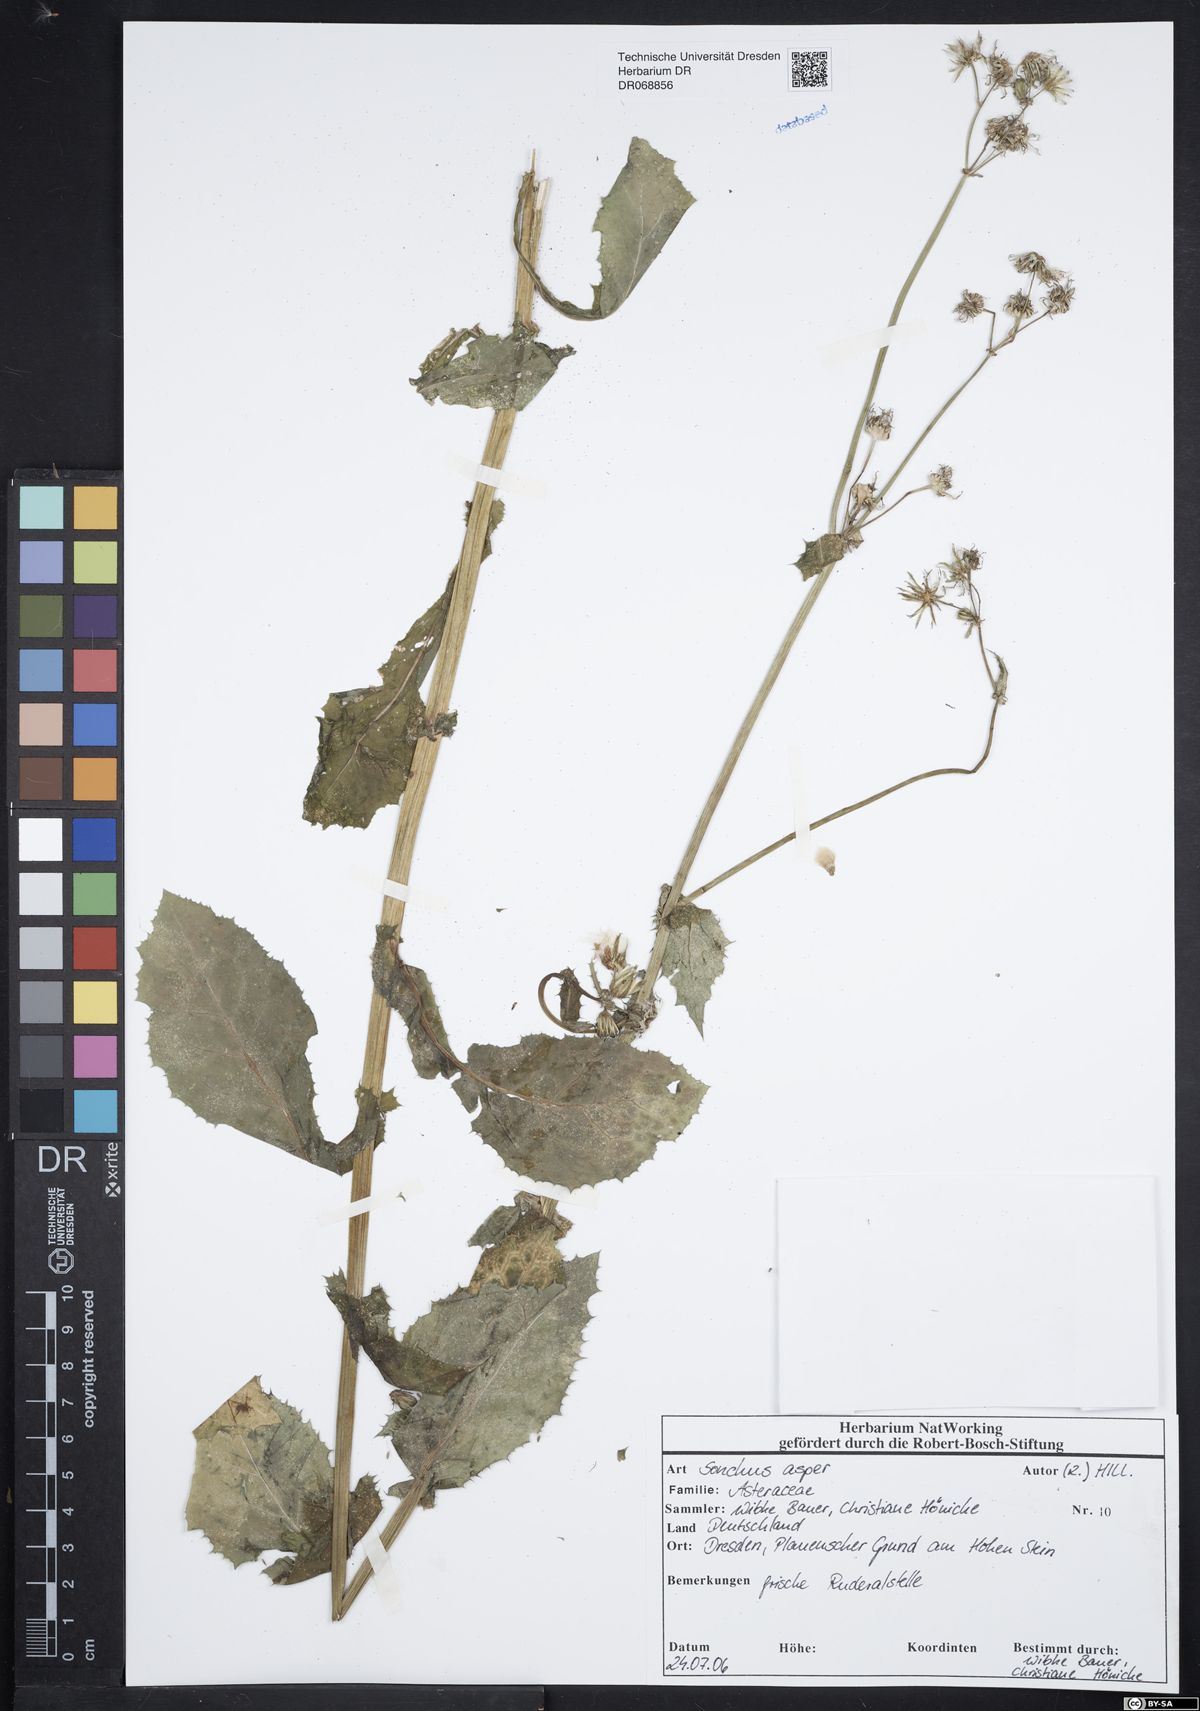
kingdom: Plantae
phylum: Tracheophyta
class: Magnoliopsida
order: Asterales
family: Asteraceae
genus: Sonchus
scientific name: Sonchus asper
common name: Prickly sow-thistle
